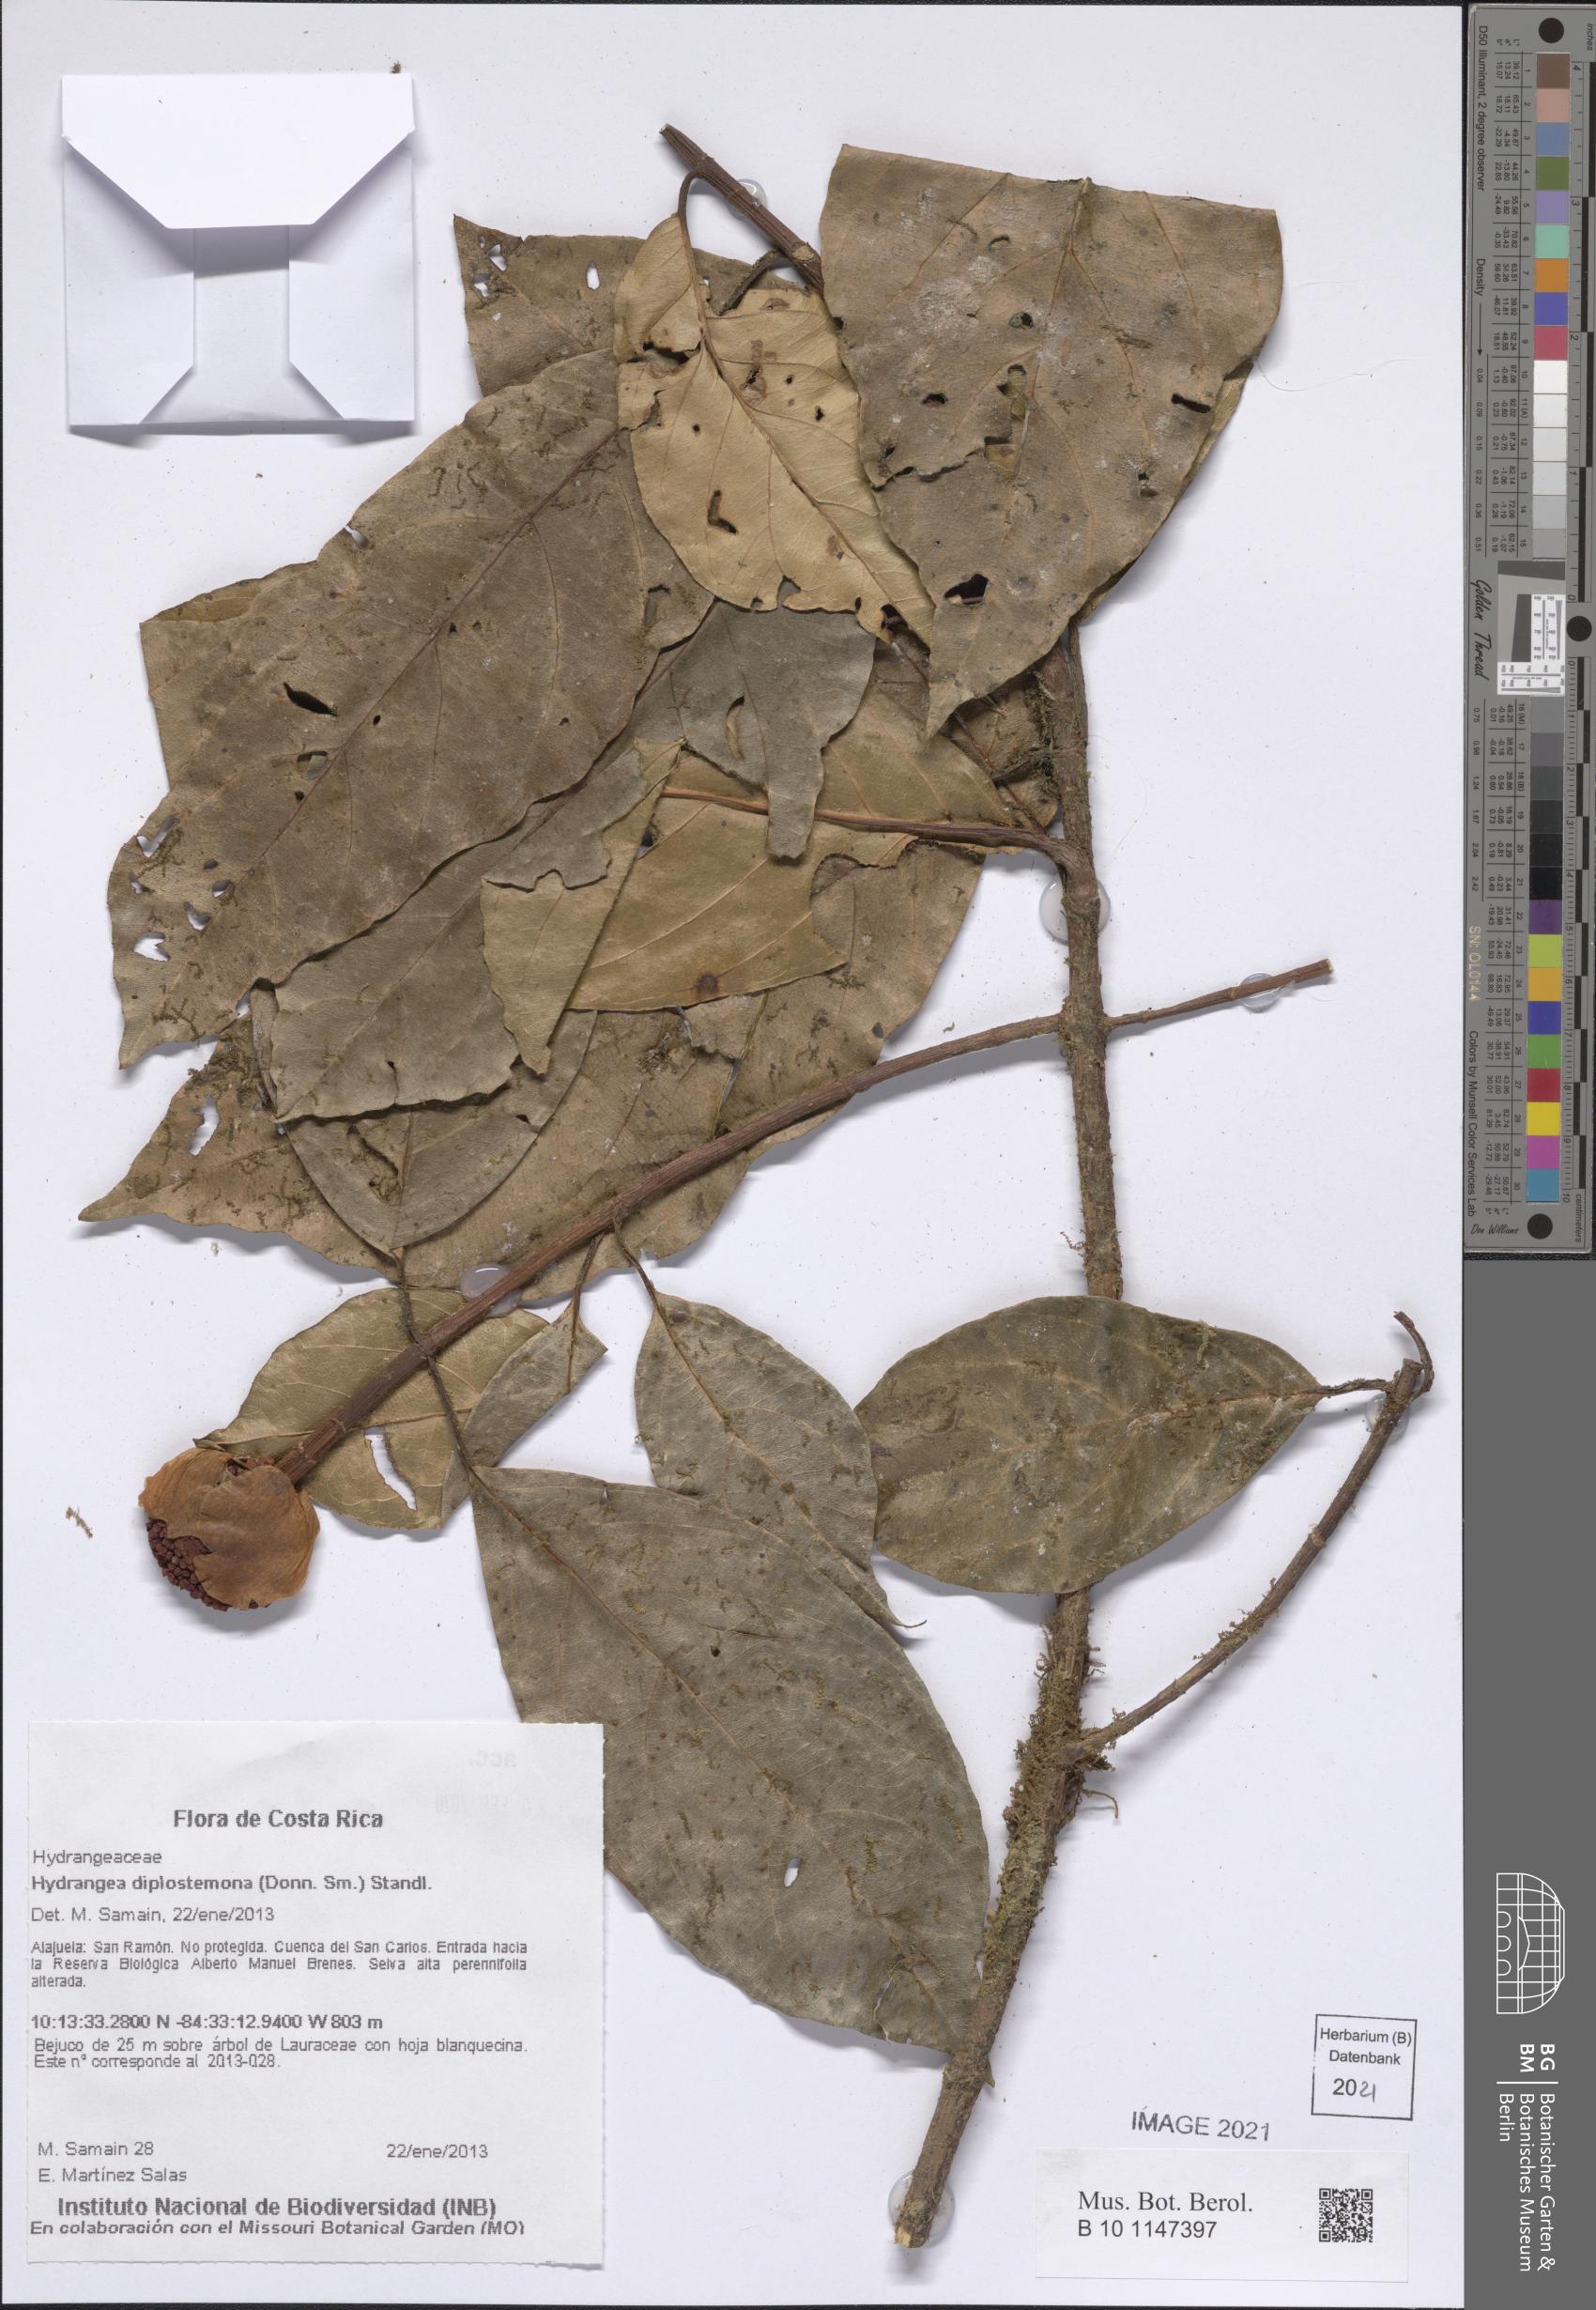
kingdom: Plantae
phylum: Tracheophyta
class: Magnoliopsida
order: Cornales
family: Hydrangeaceae
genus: Hydrangea
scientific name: Hydrangea diplostemona
